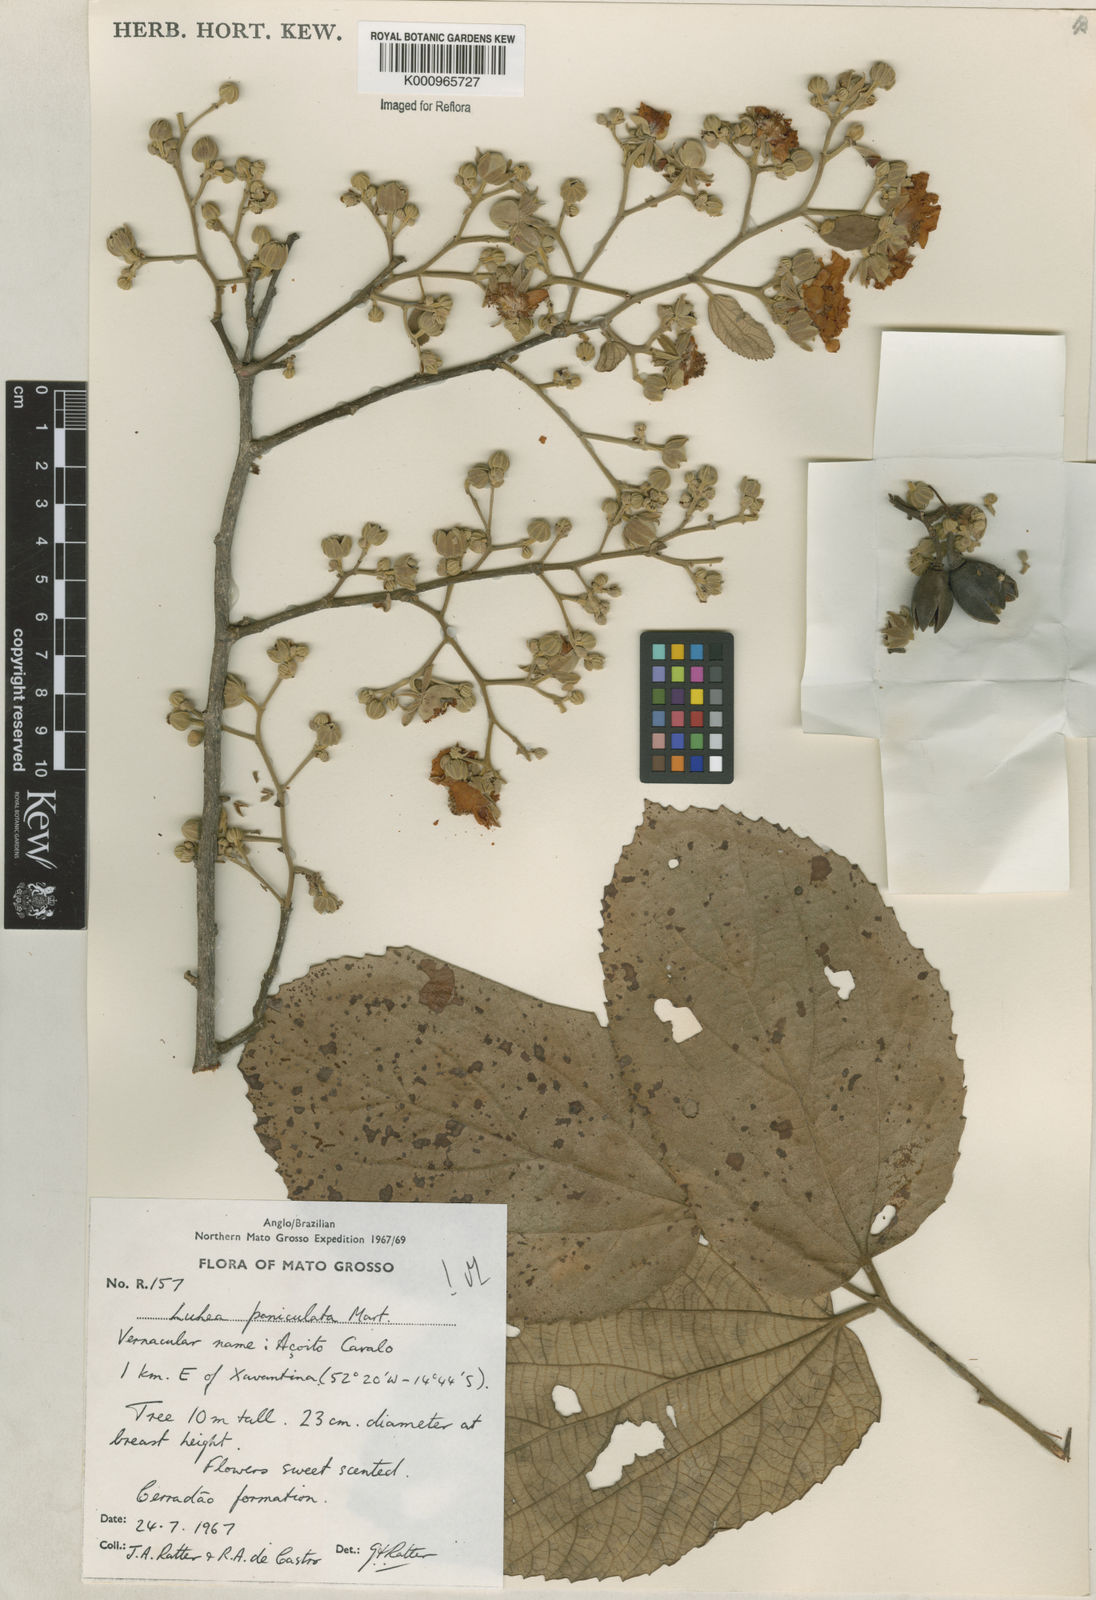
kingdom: Plantae
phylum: Tracheophyta
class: Magnoliopsida
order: Malvales
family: Malvaceae
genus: Luehea
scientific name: Luehea paniculata
